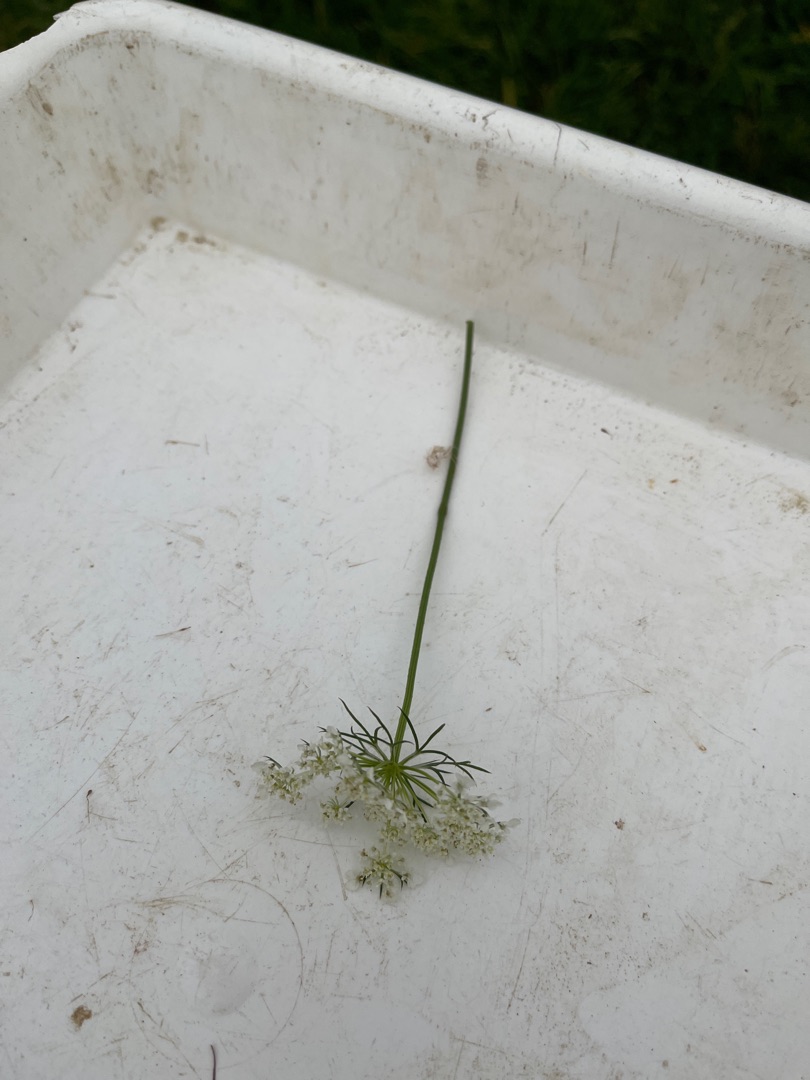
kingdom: Plantae
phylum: Tracheophyta
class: Magnoliopsida
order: Apiales
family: Apiaceae
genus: Daucus
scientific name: Daucus carota
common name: Gulerod
